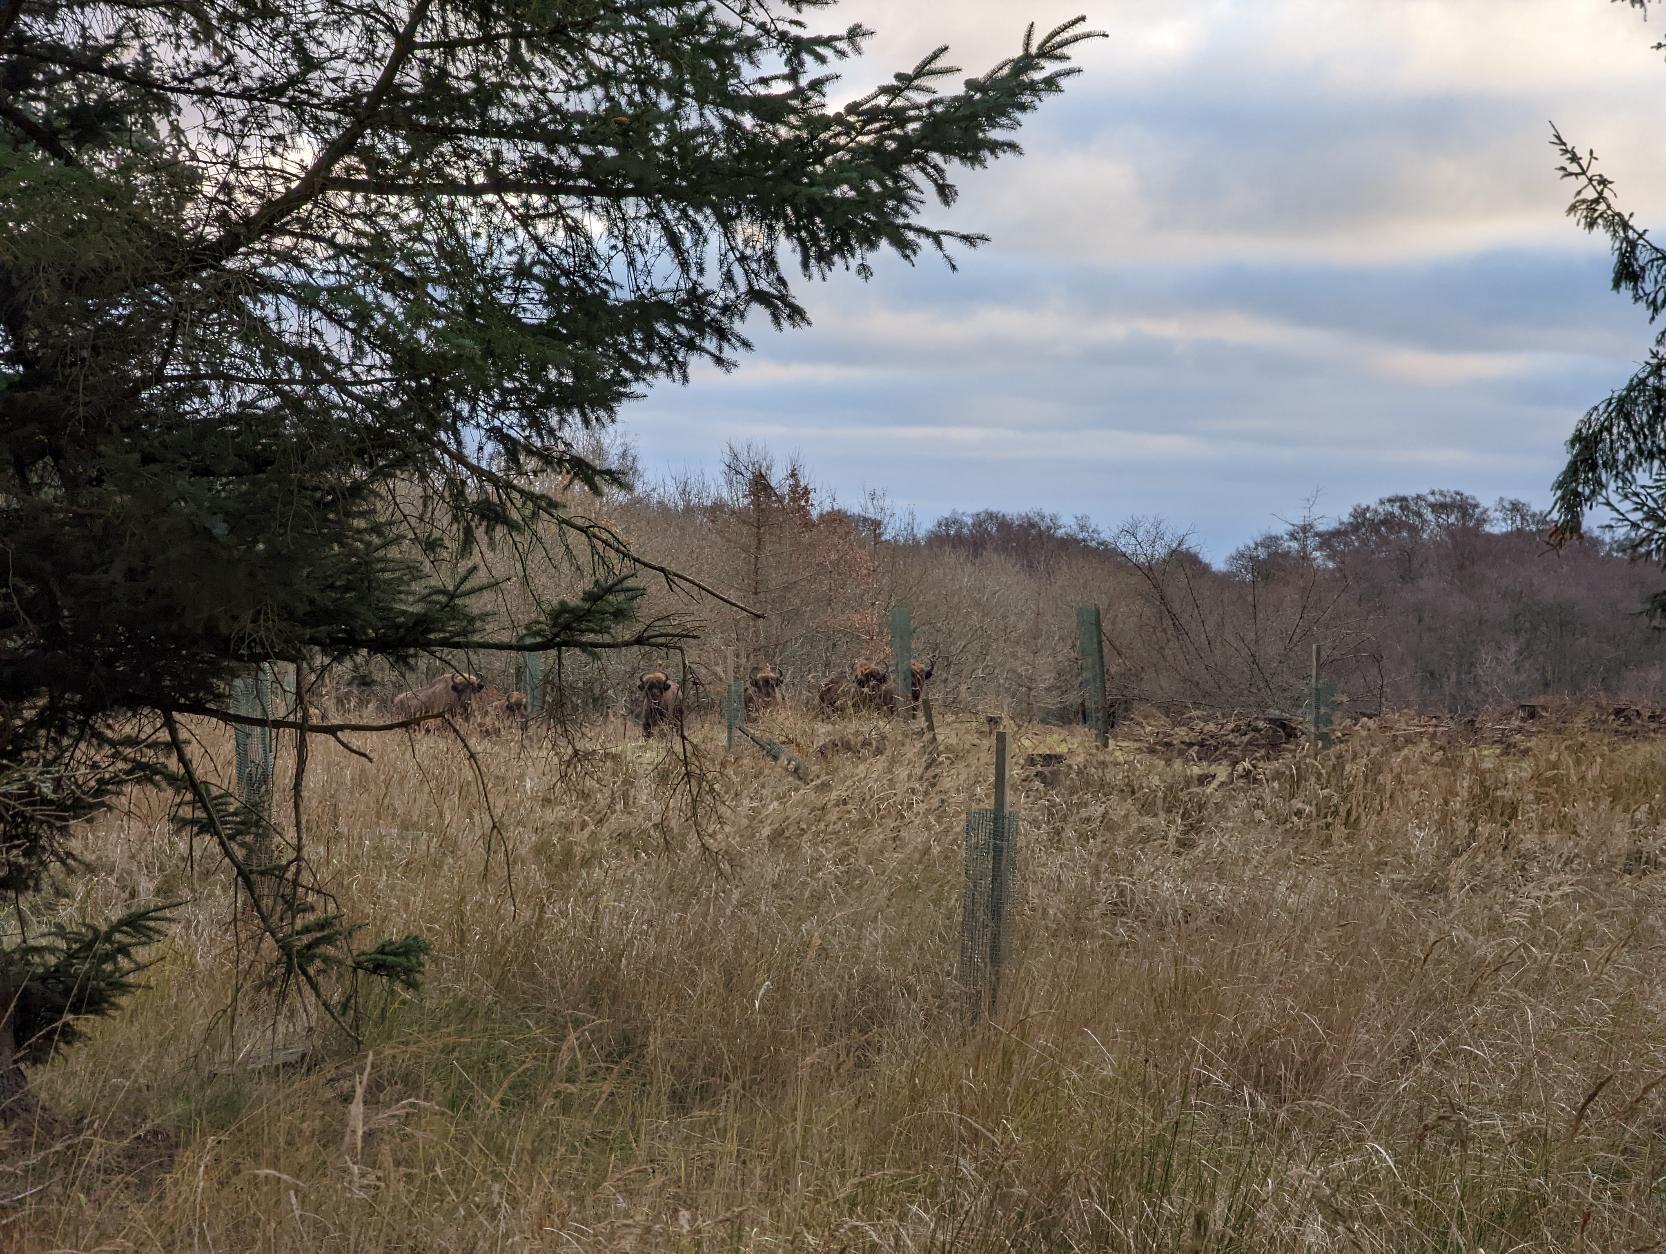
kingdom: Animalia
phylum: Chordata
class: Mammalia
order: Artiodactyla
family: Bovidae
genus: Bison
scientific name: Bison bonasus
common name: Europæisk bison
